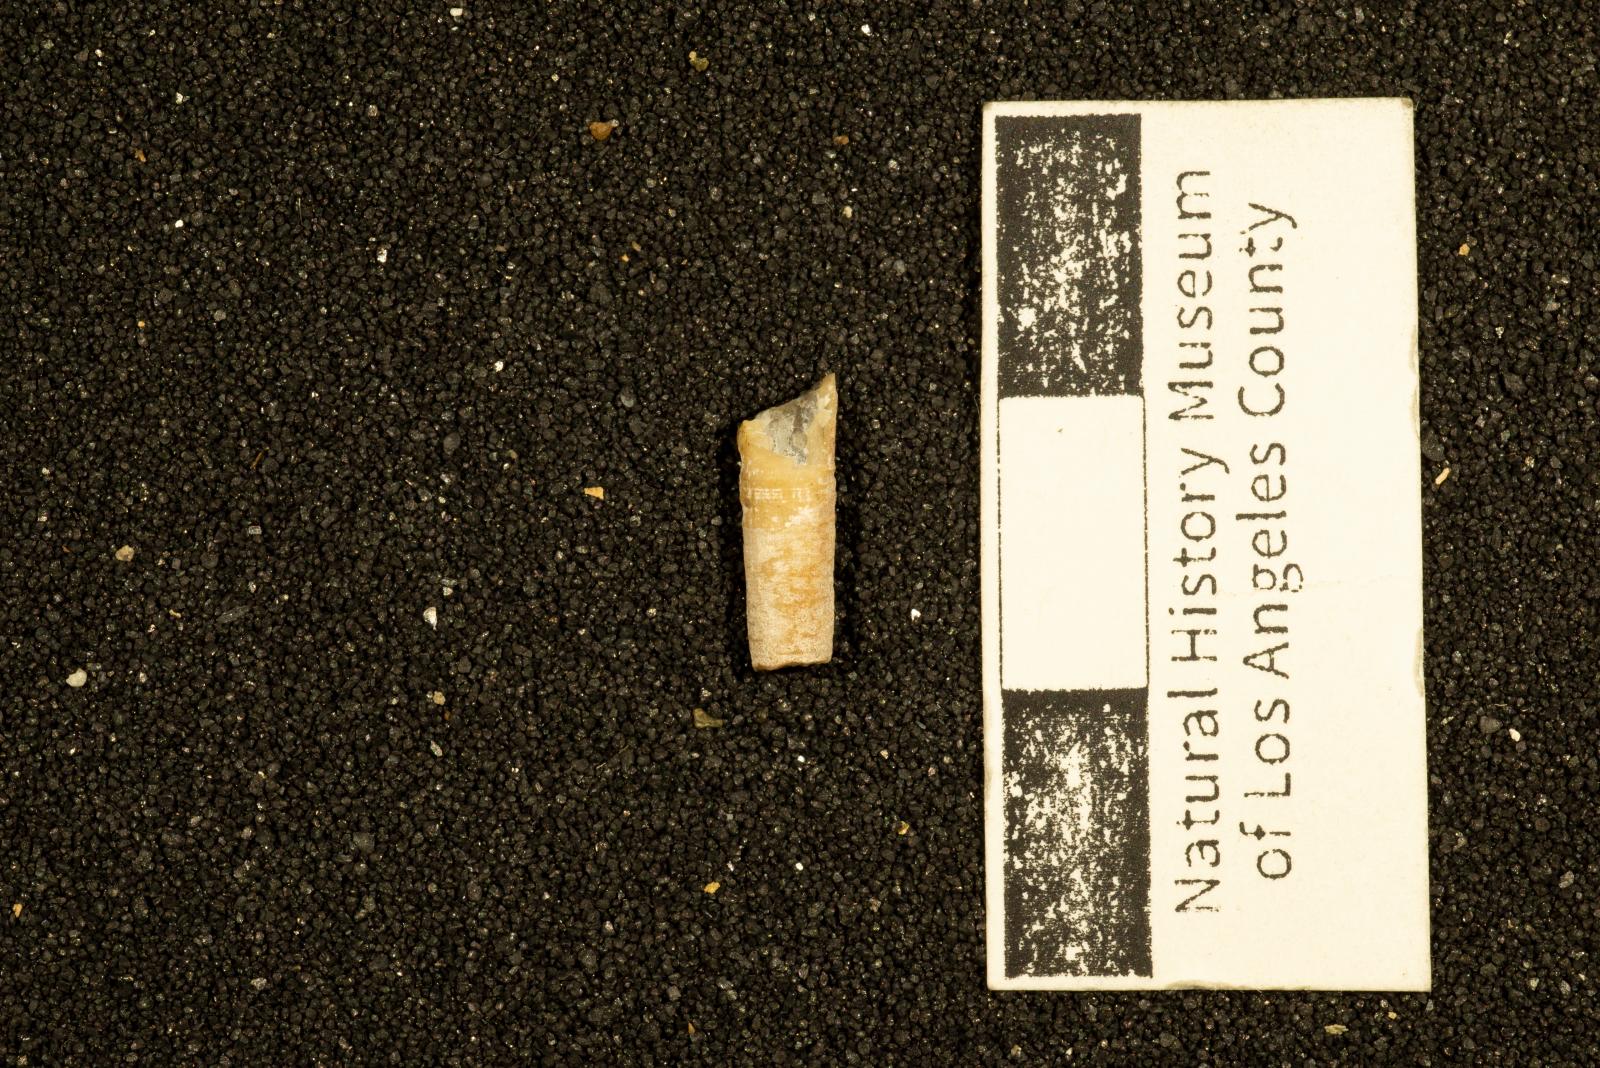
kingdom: Animalia
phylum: Mollusca
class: Scaphopoda
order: Dentaliida
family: Dentaliidae
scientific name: Dentaliidae
